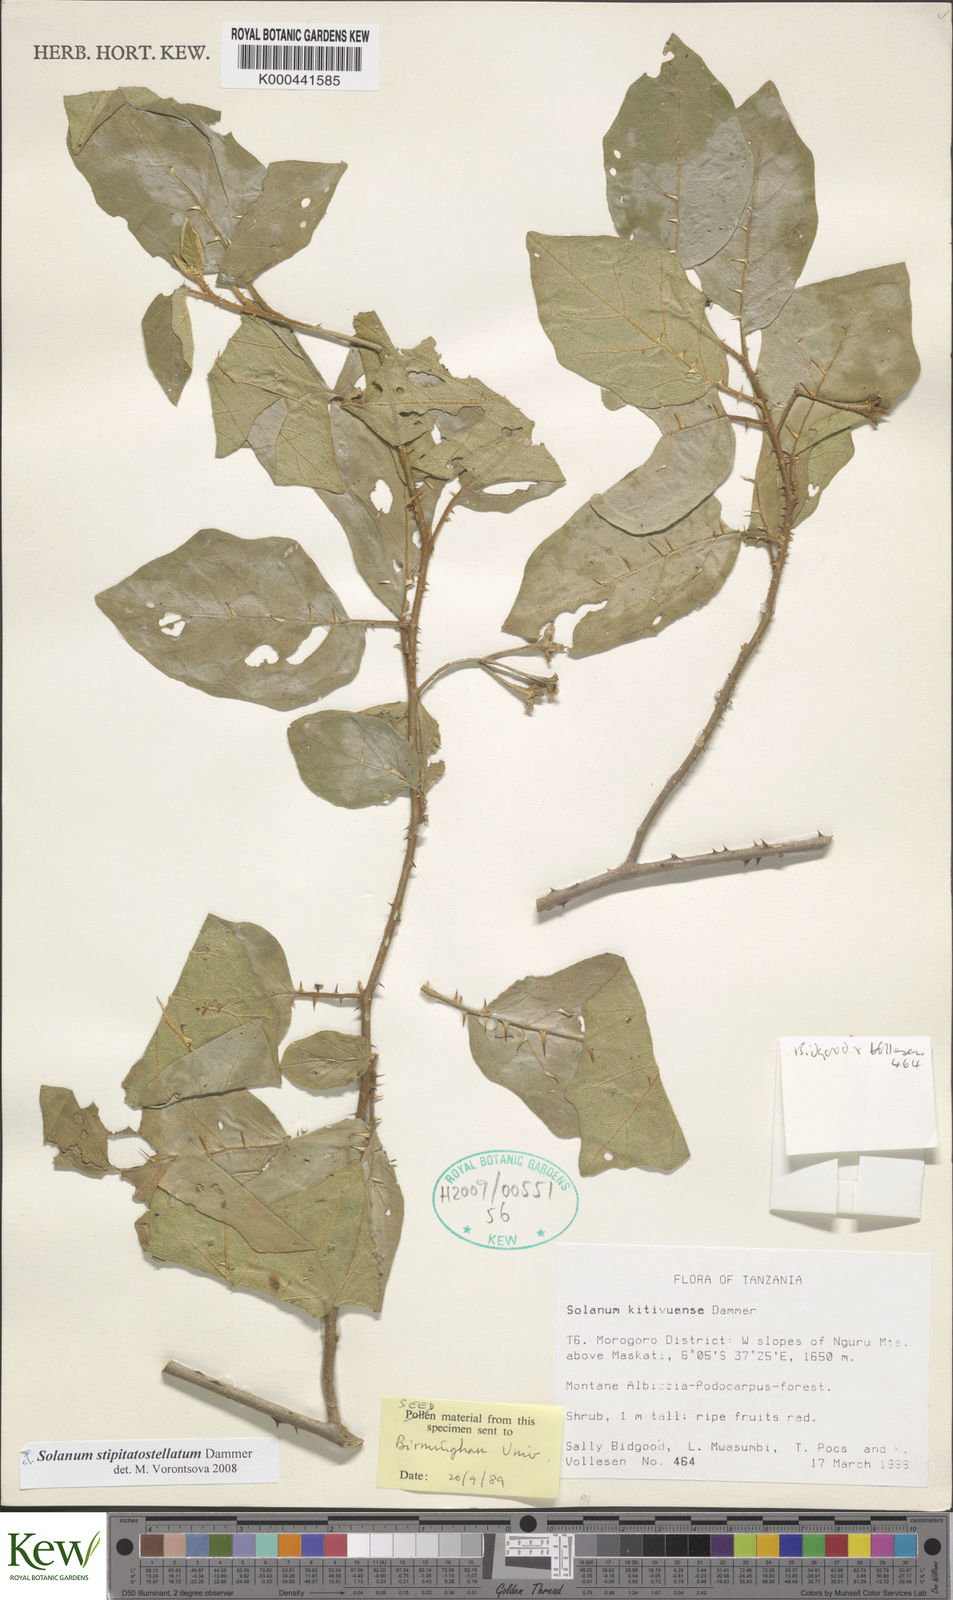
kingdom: Plantae
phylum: Tracheophyta
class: Magnoliopsida
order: Solanales
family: Solanaceae
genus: Solanum
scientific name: Solanum stipitatostellatum
